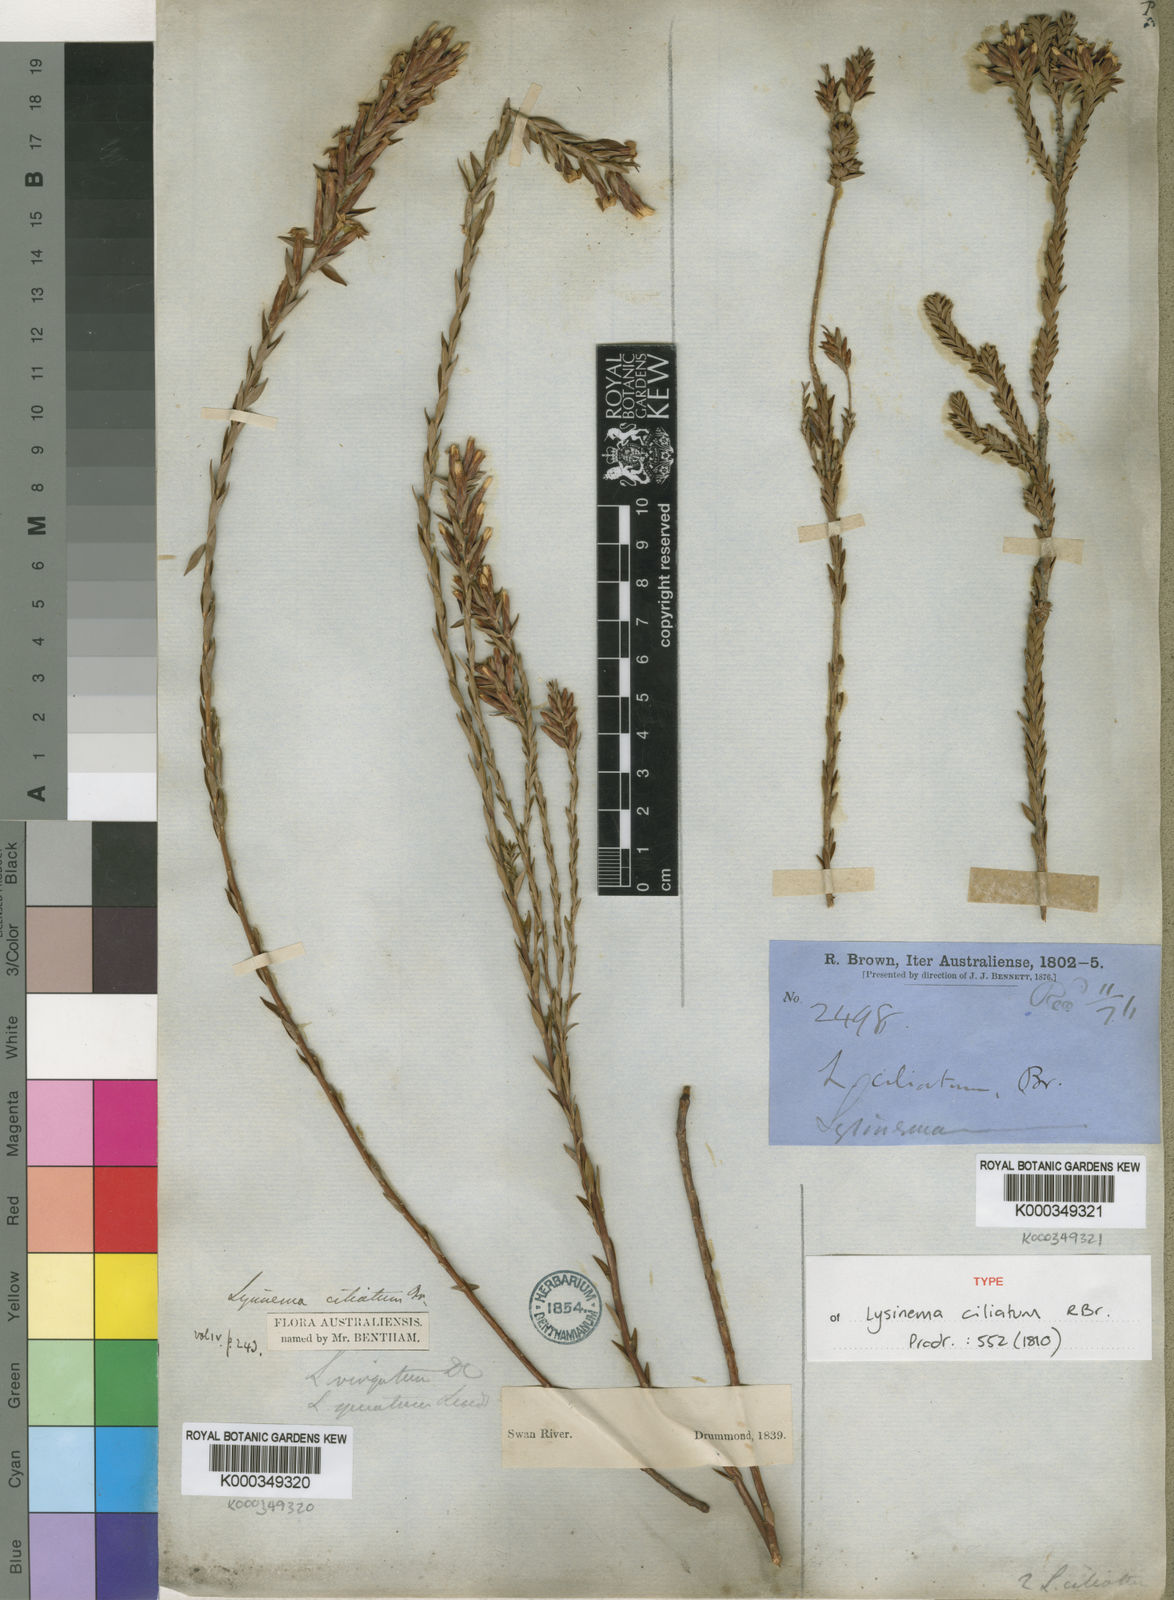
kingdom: Plantae
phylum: Tracheophyta
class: Magnoliopsida
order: Ericales
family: Ericaceae
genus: Lysinema
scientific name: Lysinema ciliatum
